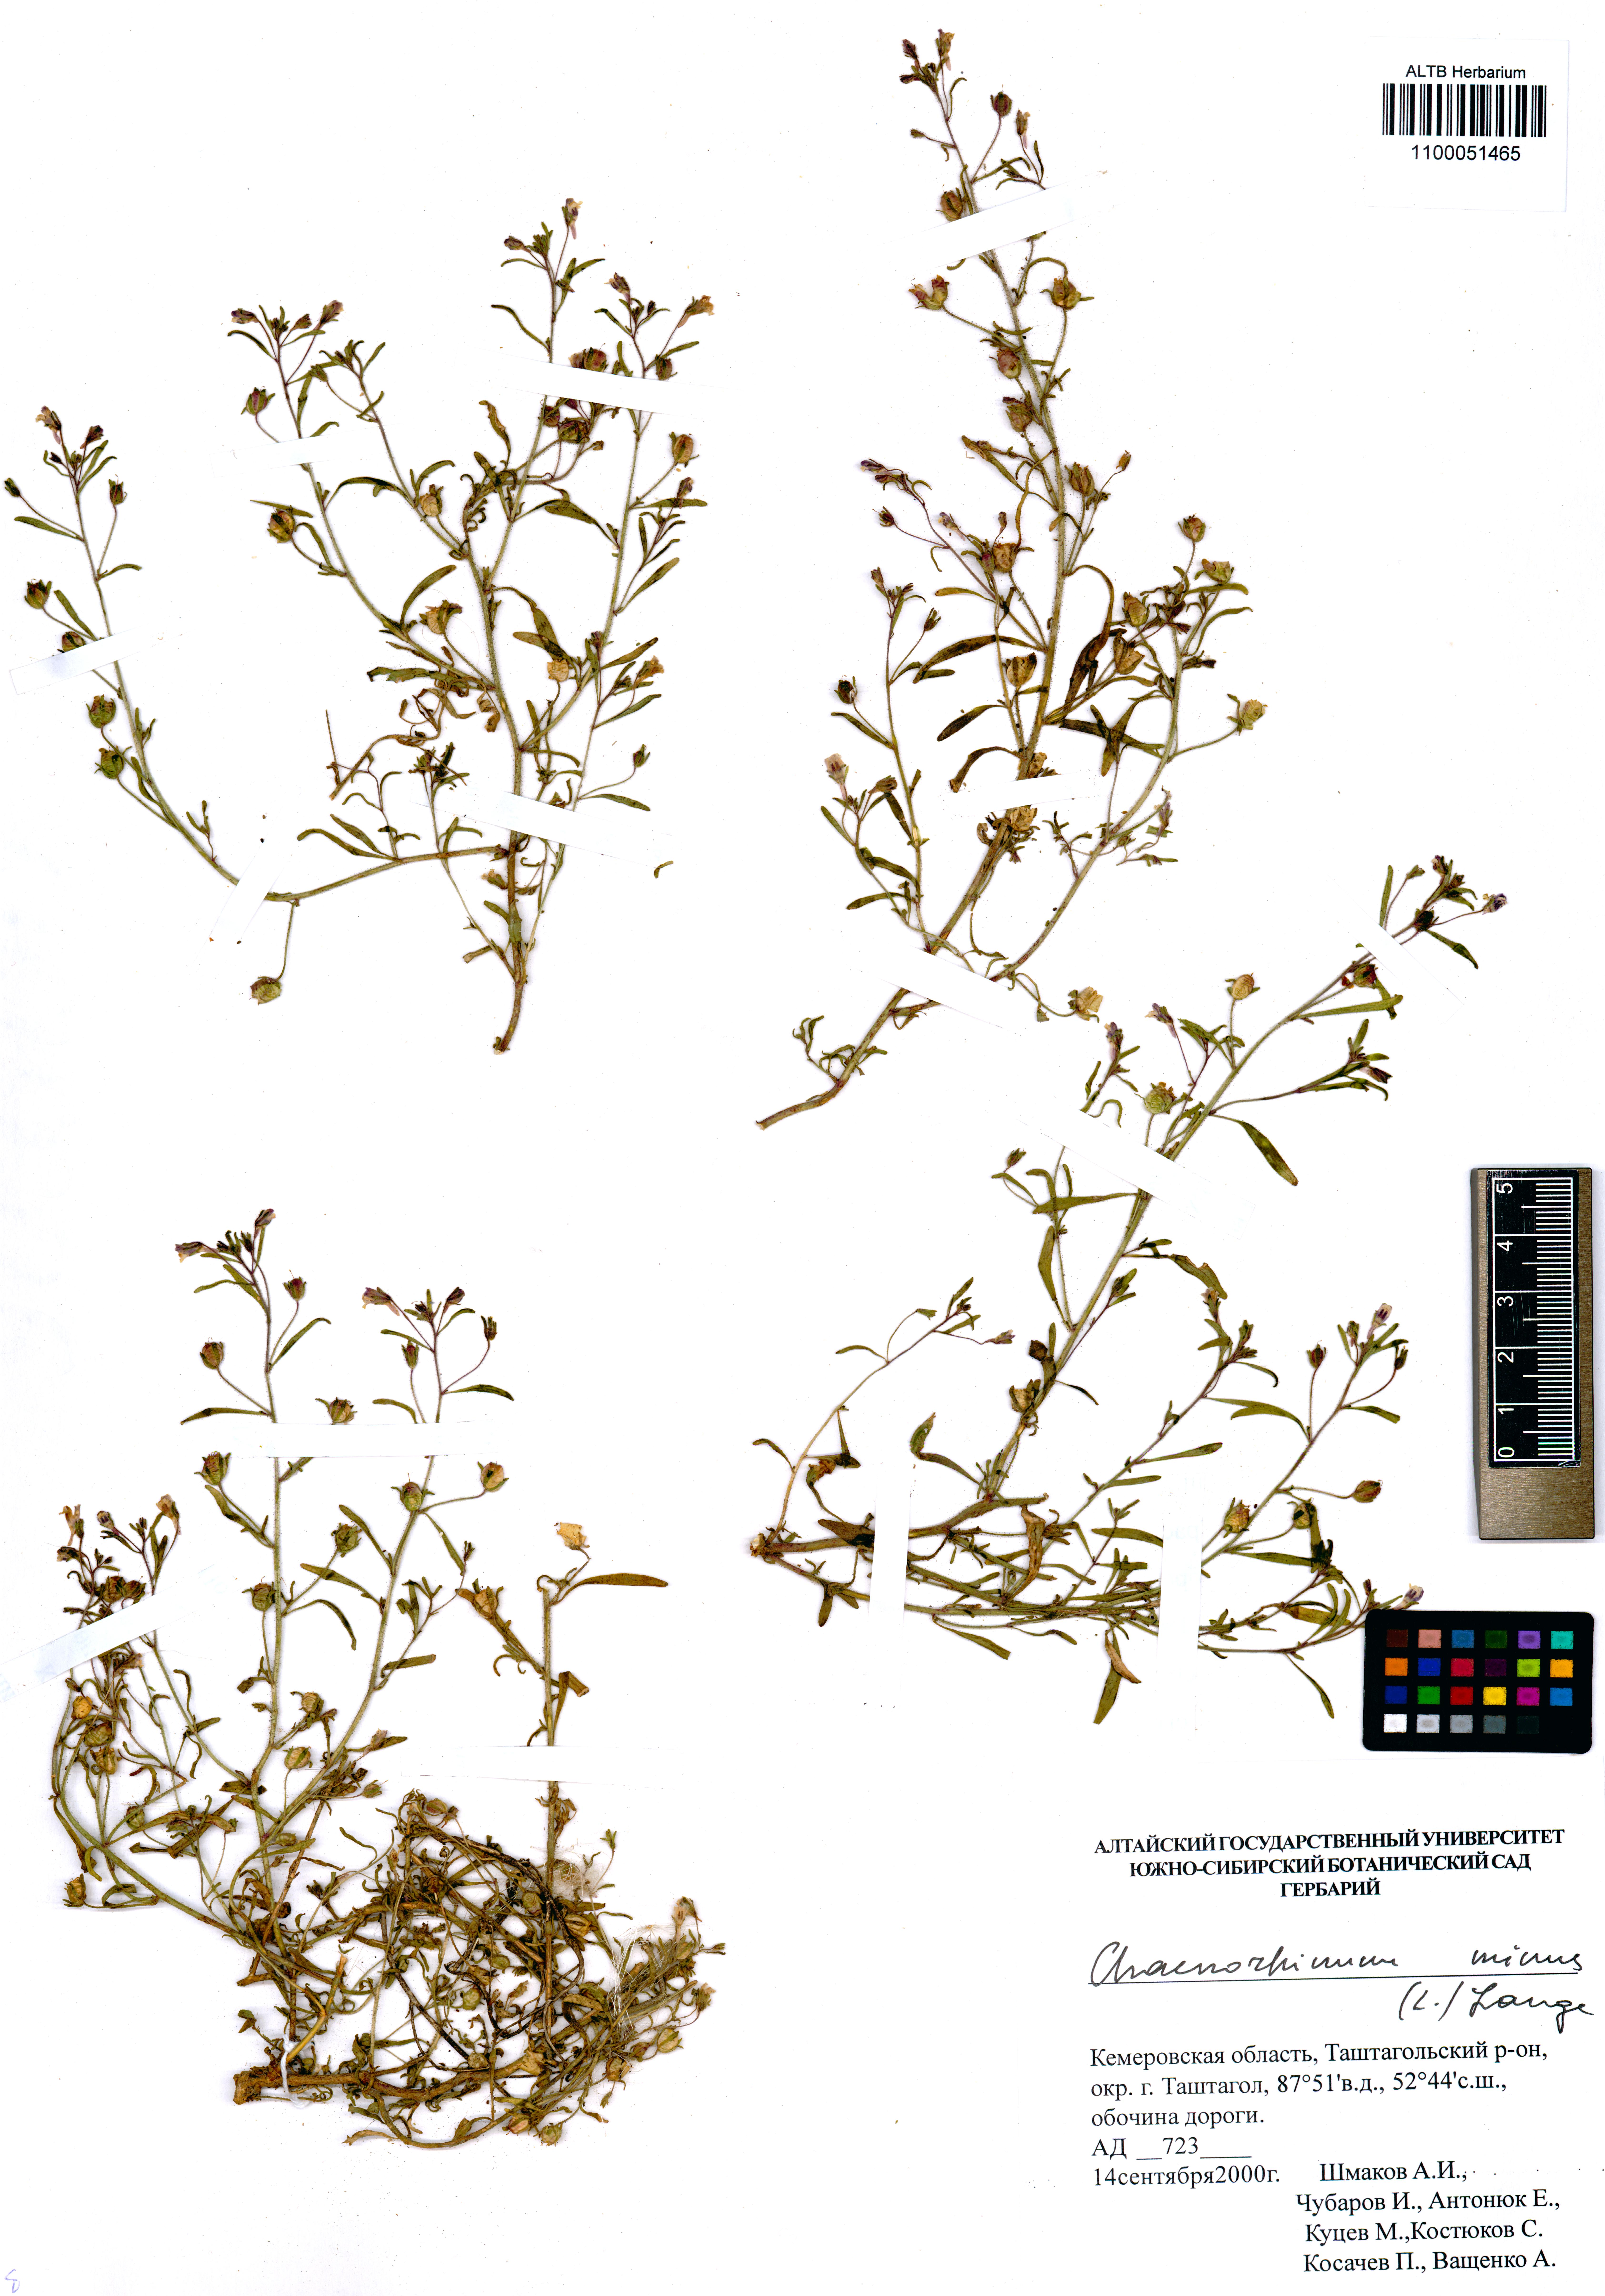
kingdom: Plantae
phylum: Tracheophyta
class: Magnoliopsida
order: Lamiales
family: Plantaginaceae
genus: Chaenorhinum
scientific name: Chaenorhinum minus
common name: Dwarf snapdragon
